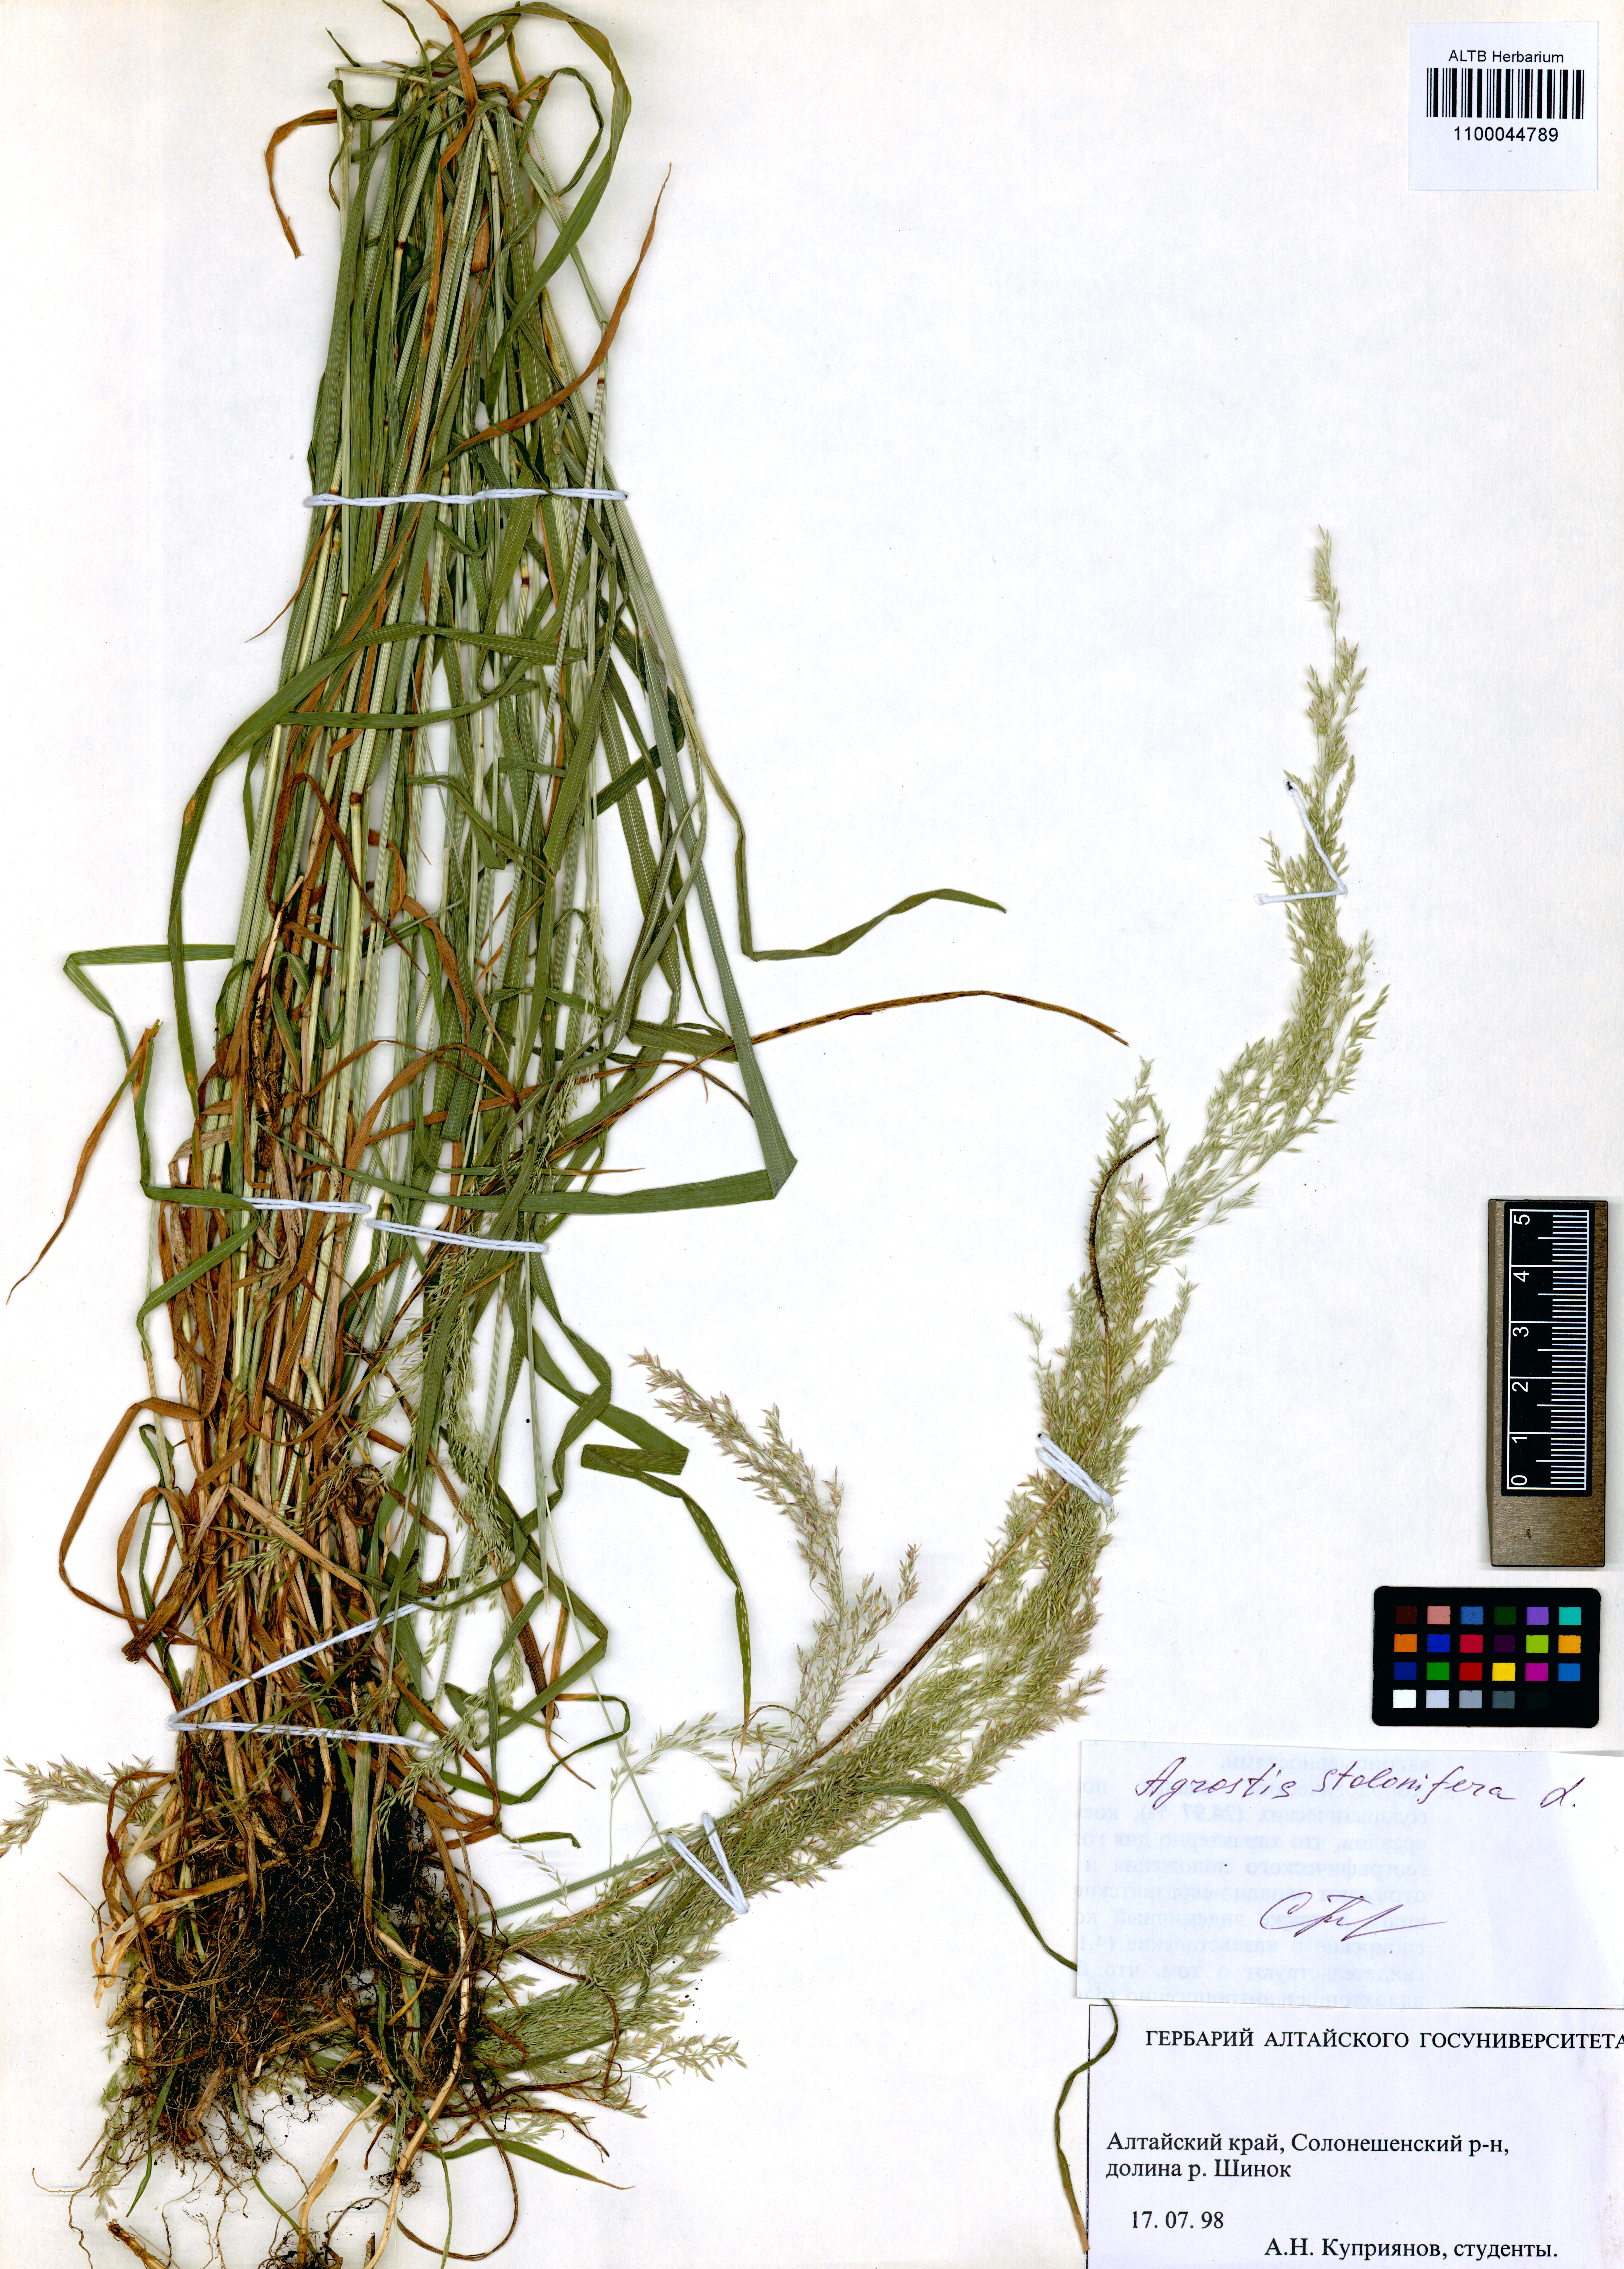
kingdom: Plantae
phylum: Tracheophyta
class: Liliopsida
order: Poales
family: Poaceae
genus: Agrostis
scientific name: Agrostis stolonifera
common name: Creeping bentgrass
